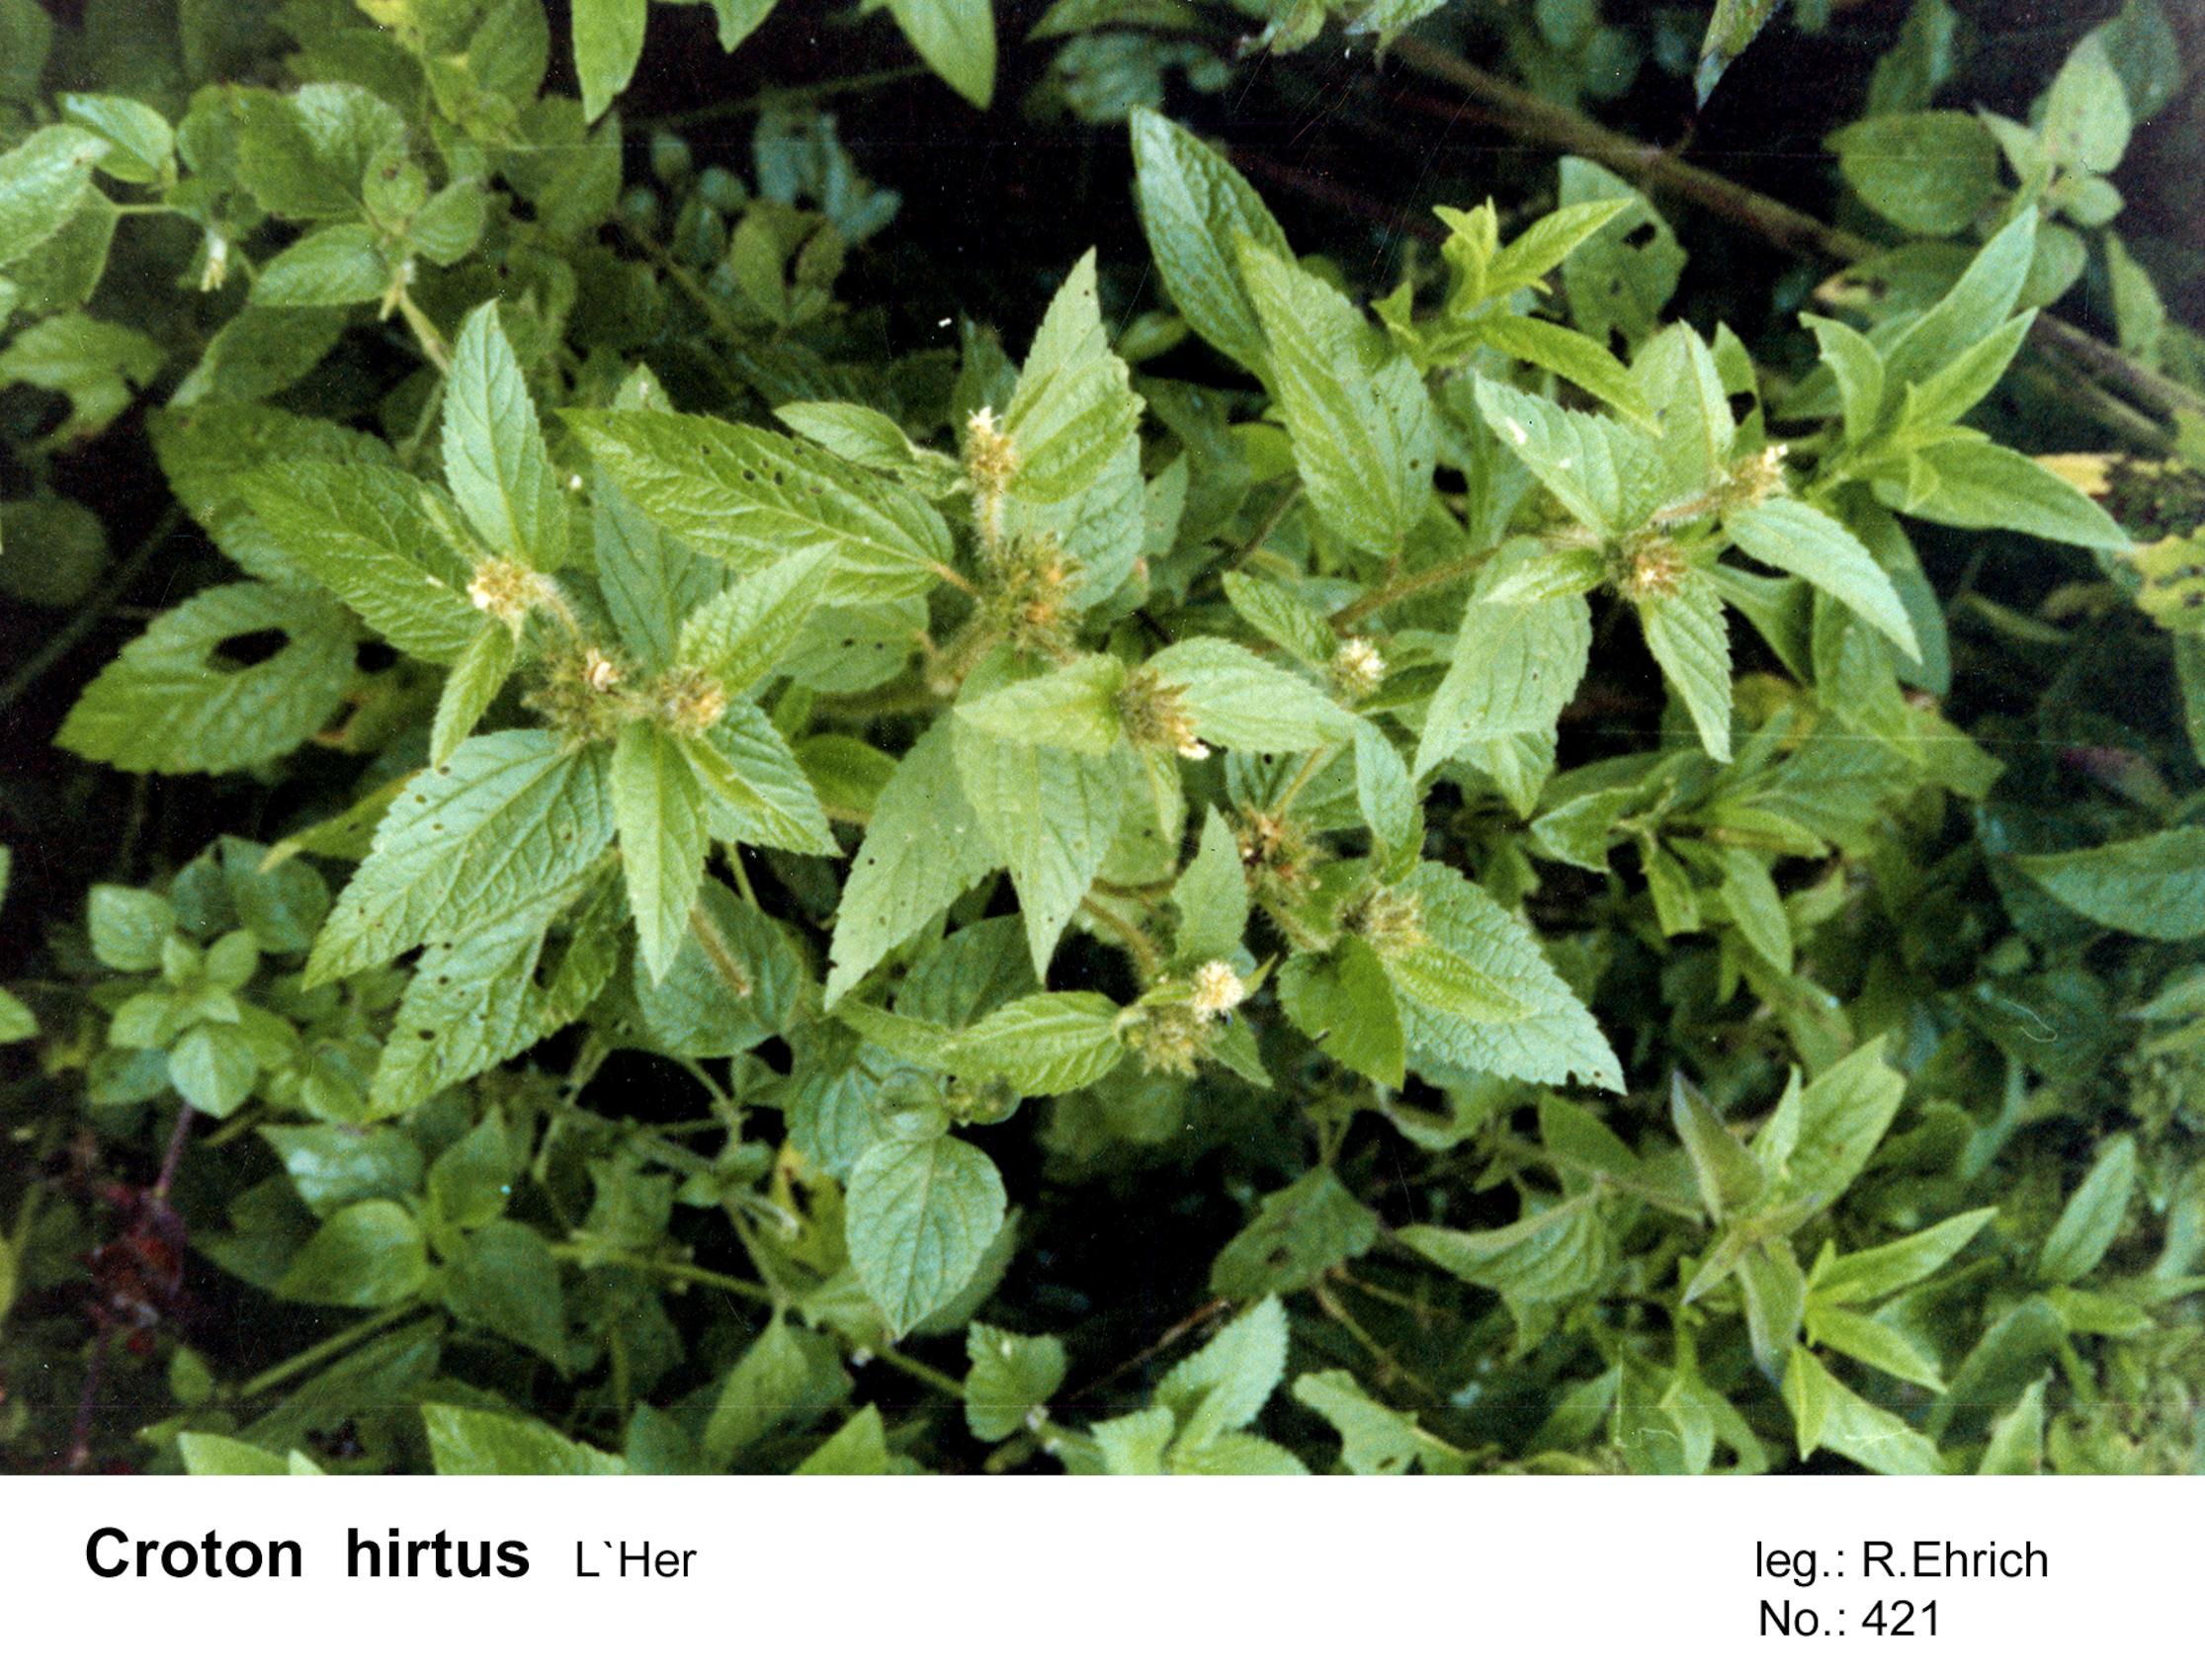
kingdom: Plantae
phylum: Tracheophyta
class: Magnoliopsida
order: Malpighiales
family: Euphorbiaceae
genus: Croton
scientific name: Croton hirtus
